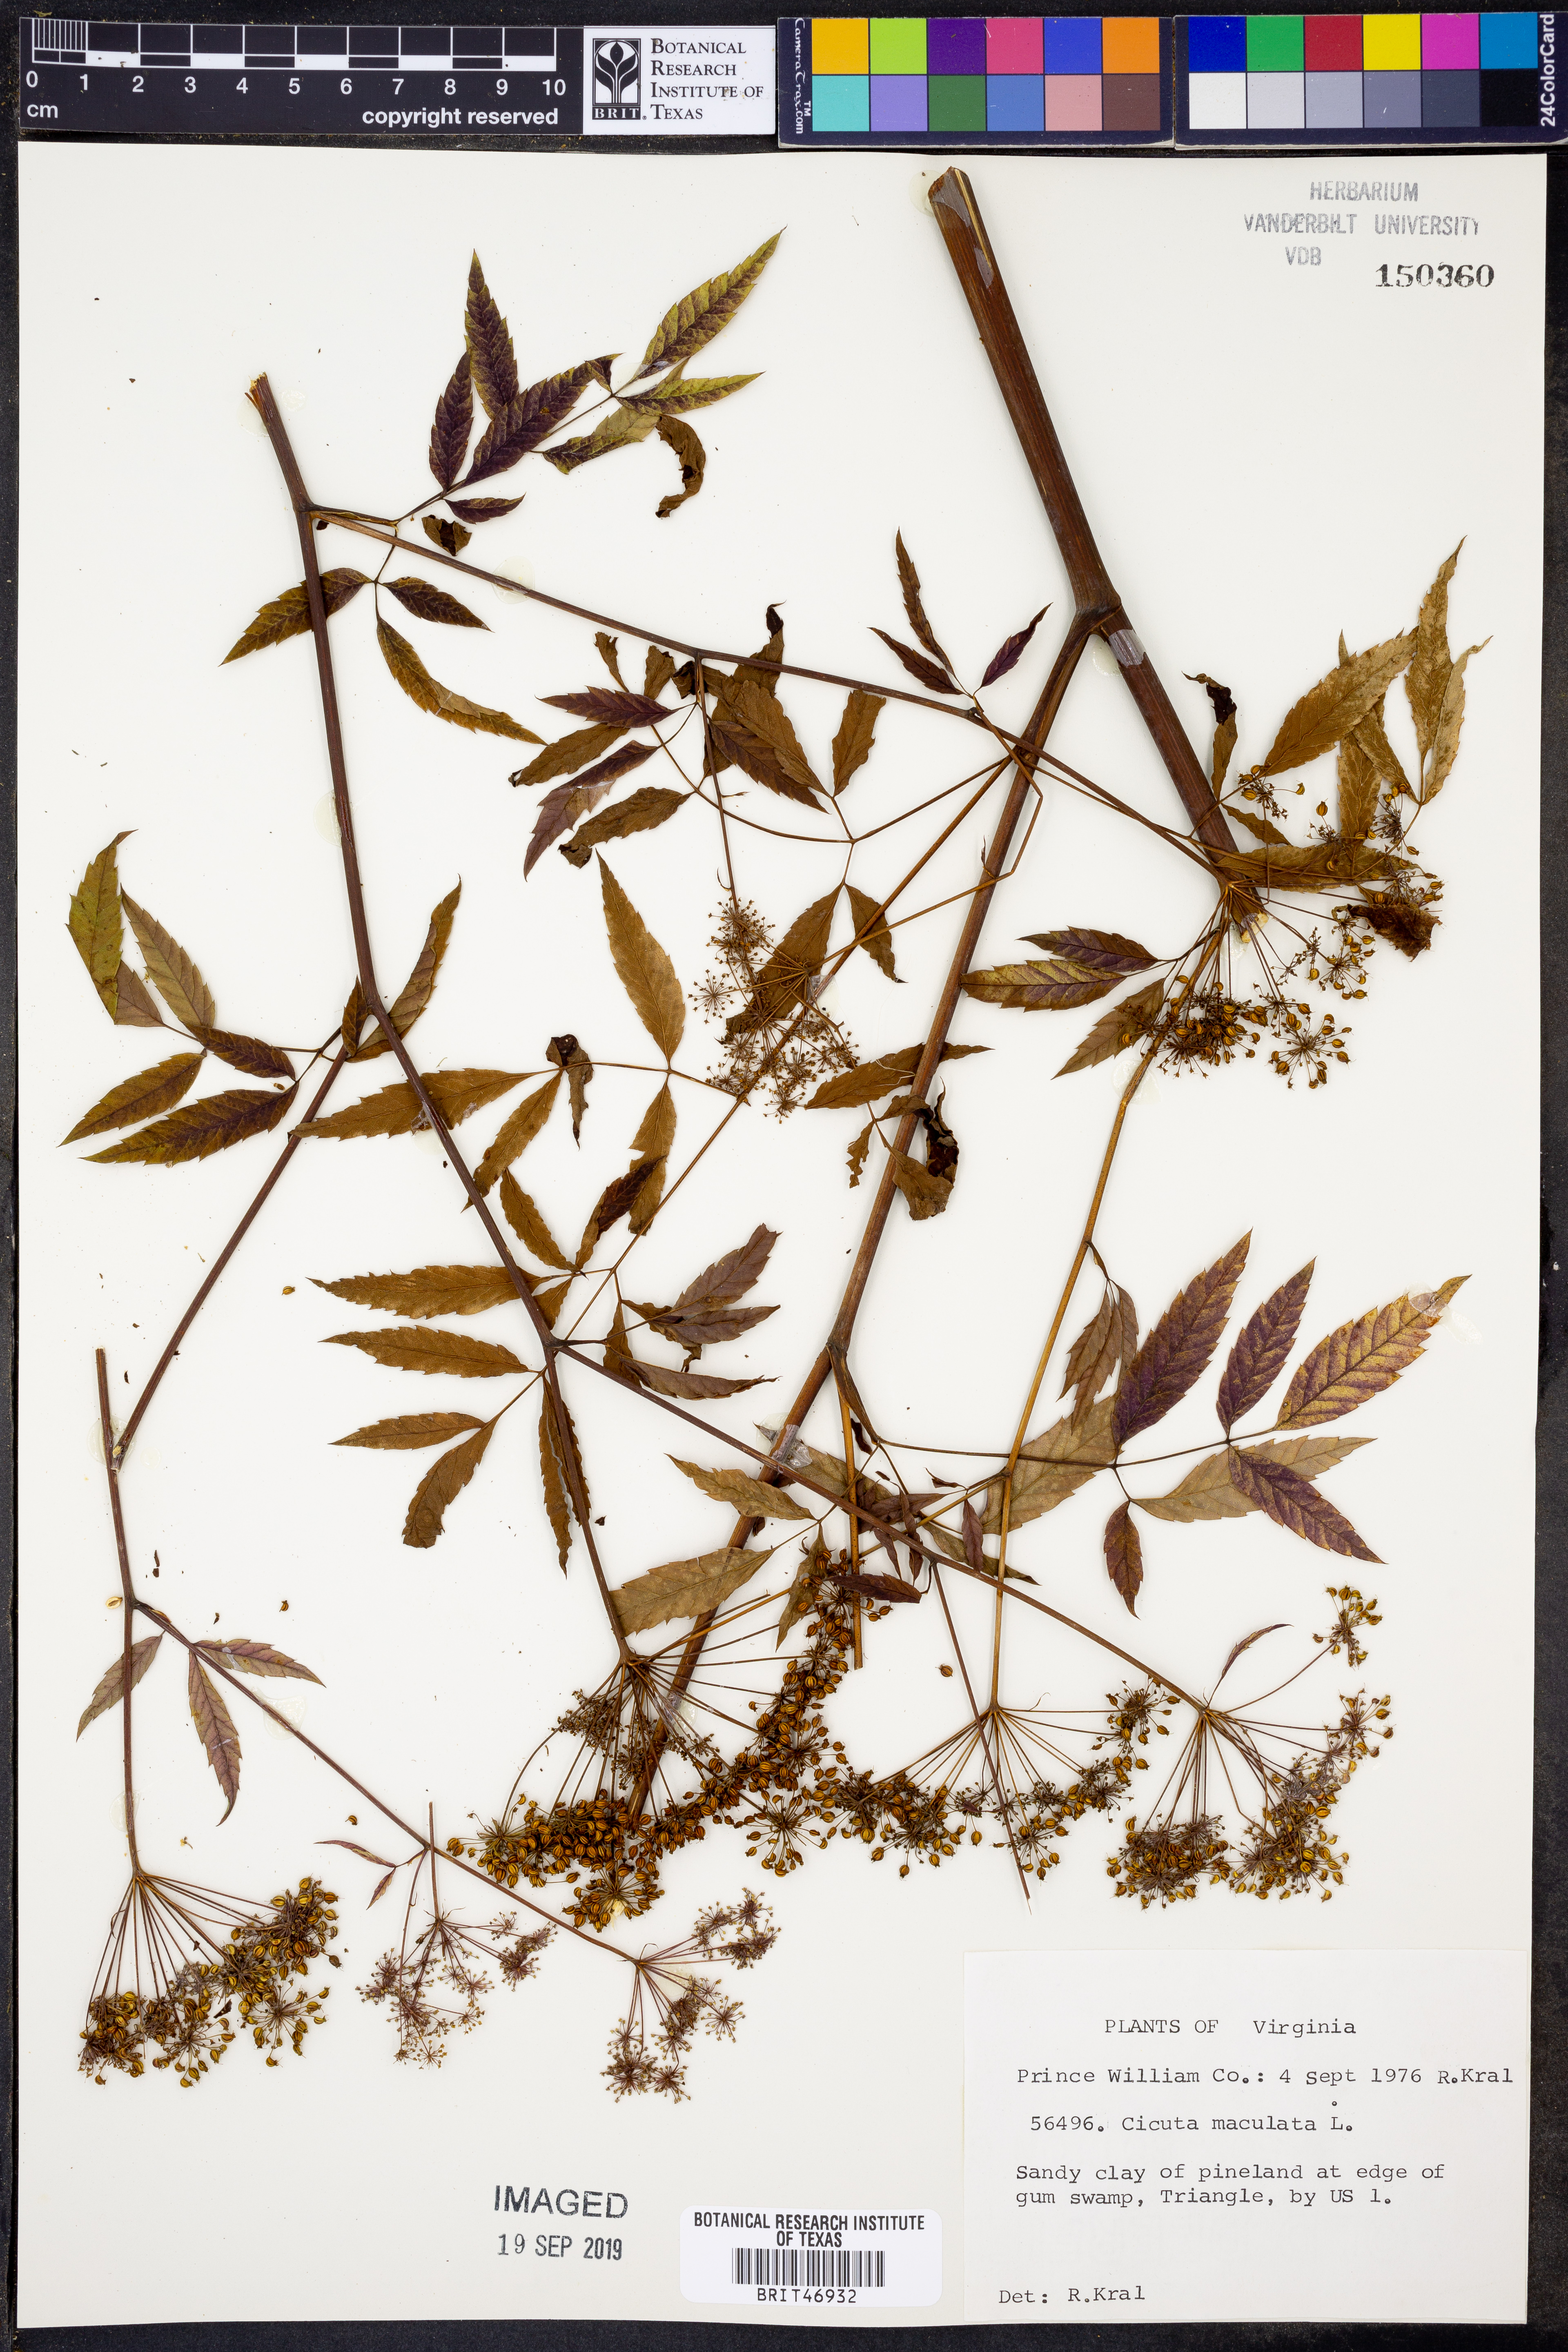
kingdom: Plantae
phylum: Tracheophyta
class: Magnoliopsida
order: Apiales
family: Apiaceae
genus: Cicuta
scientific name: Cicuta maculata
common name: Spotted cowbane
